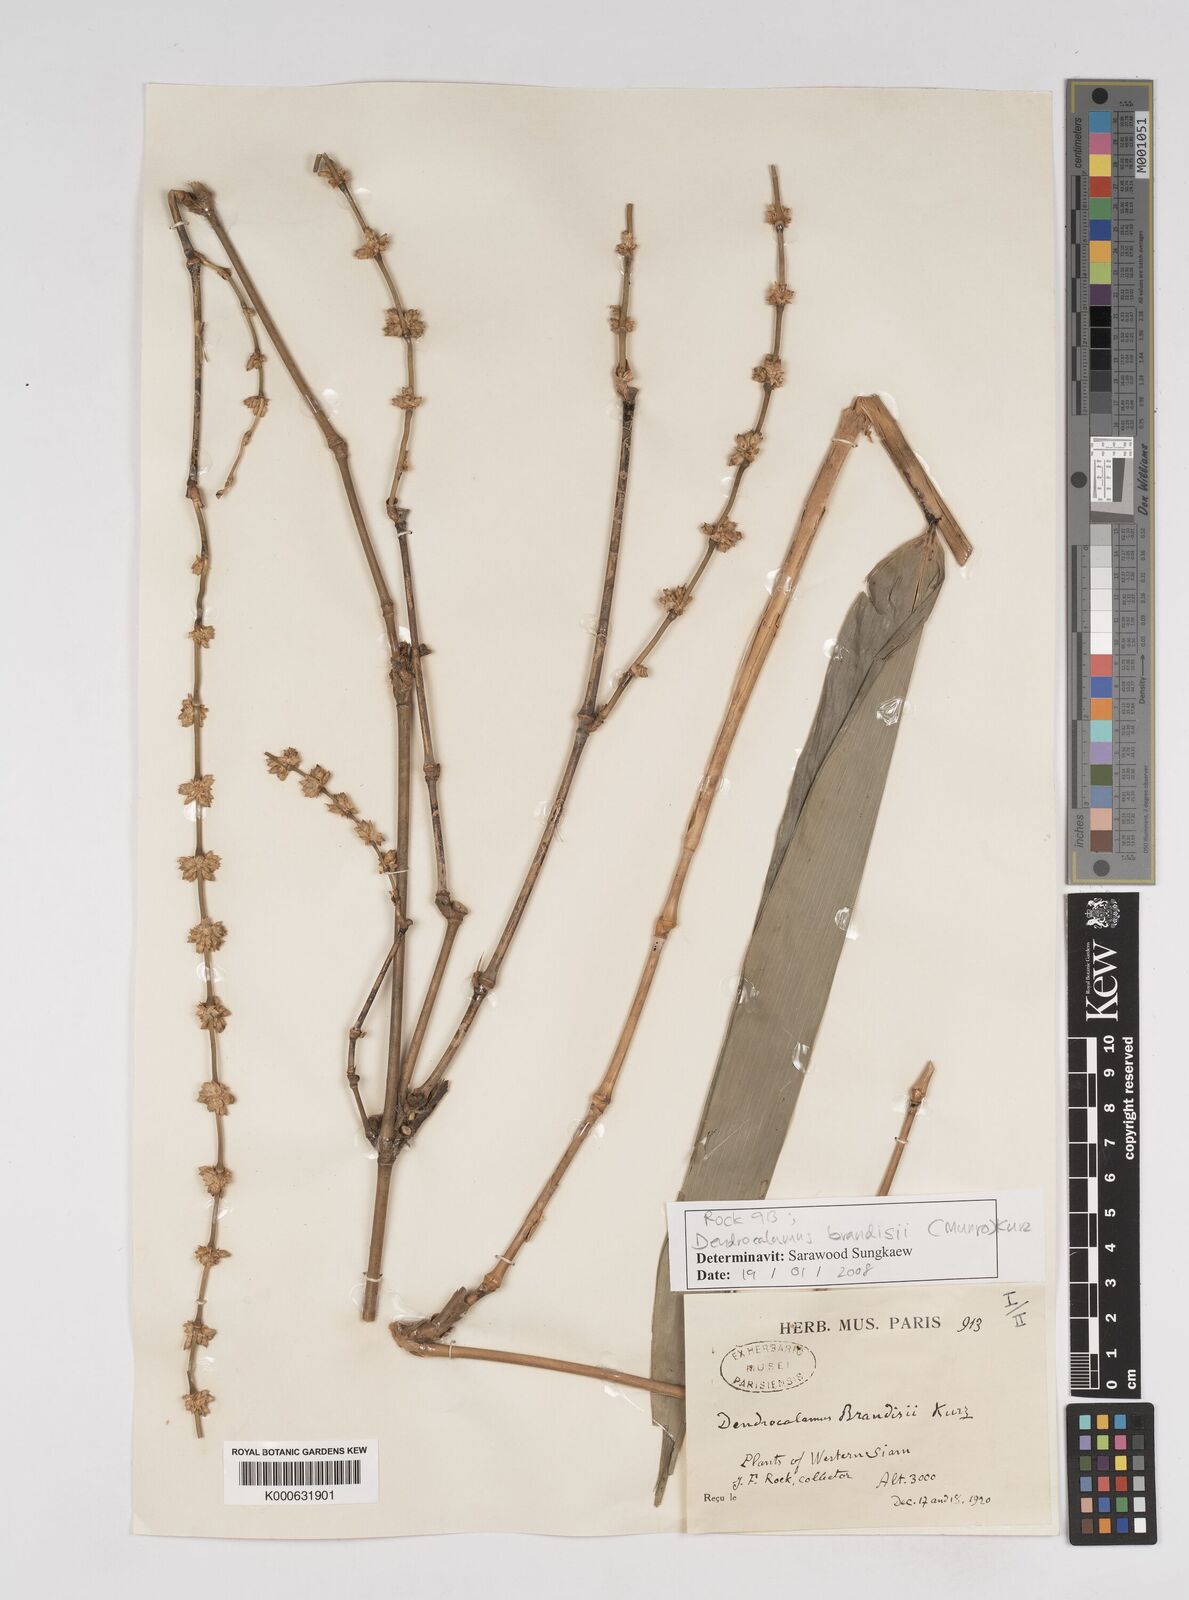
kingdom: Plantae
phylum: Tracheophyta
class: Liliopsida
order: Poales
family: Poaceae
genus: Dendrocalamus
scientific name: Dendrocalamus brandisii
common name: Velvetleaf bamboo
